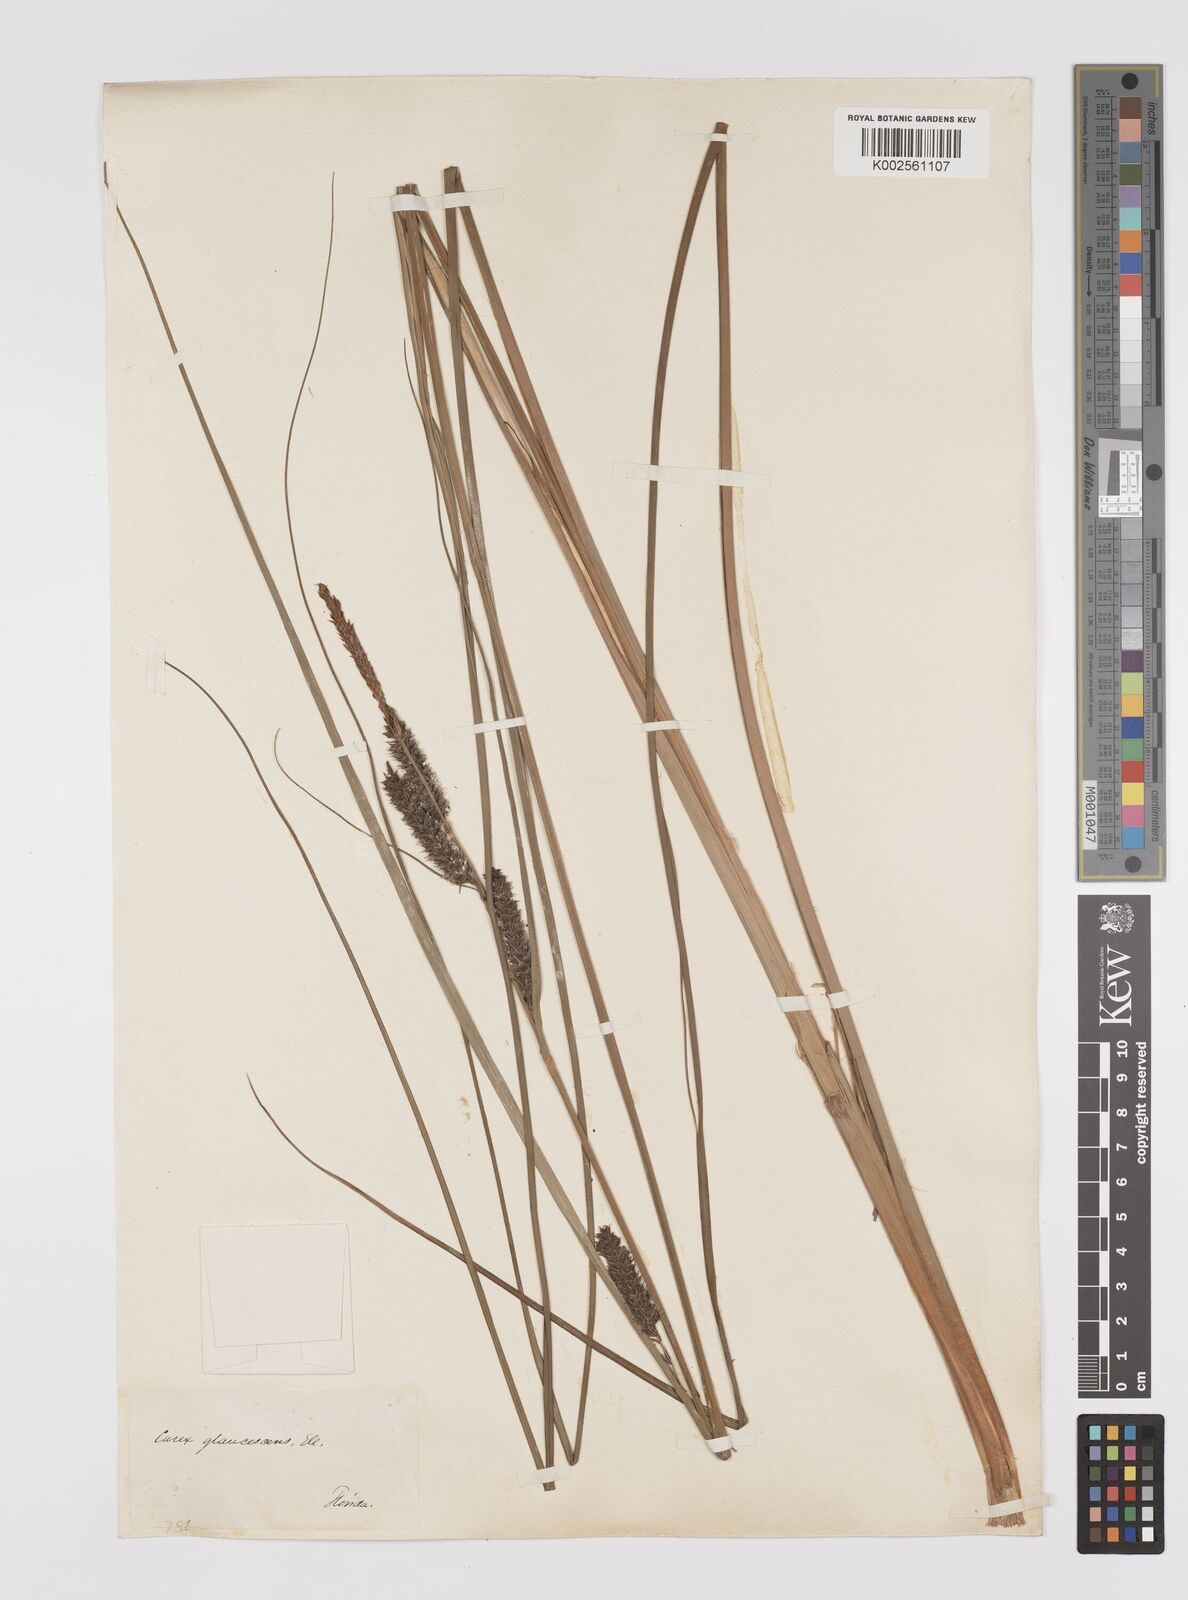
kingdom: Plantae
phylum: Tracheophyta
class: Liliopsida
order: Poales
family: Cyperaceae
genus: Carex
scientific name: Carex glaucescens
